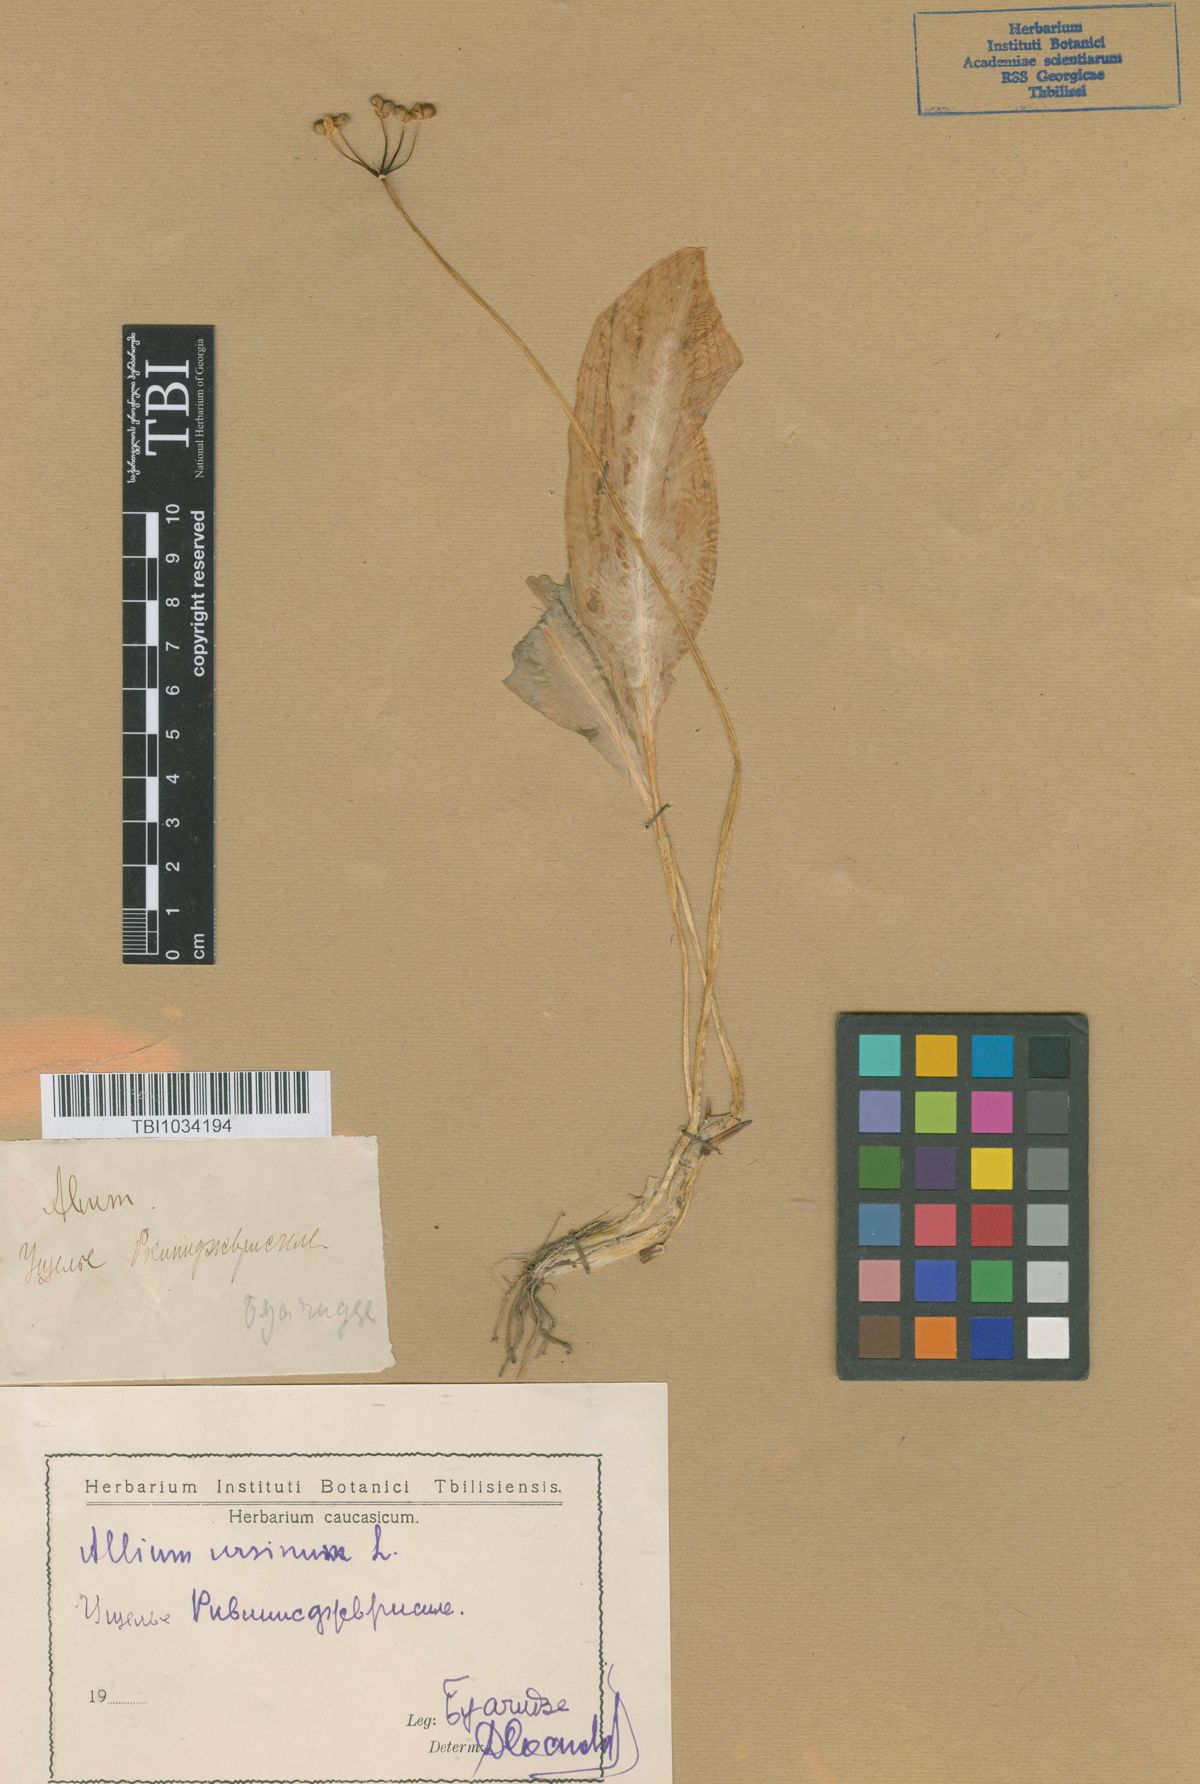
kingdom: Plantae
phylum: Tracheophyta
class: Liliopsida
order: Asparagales
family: Amaryllidaceae
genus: Allium
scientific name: Allium ursinum
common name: Ramsons
